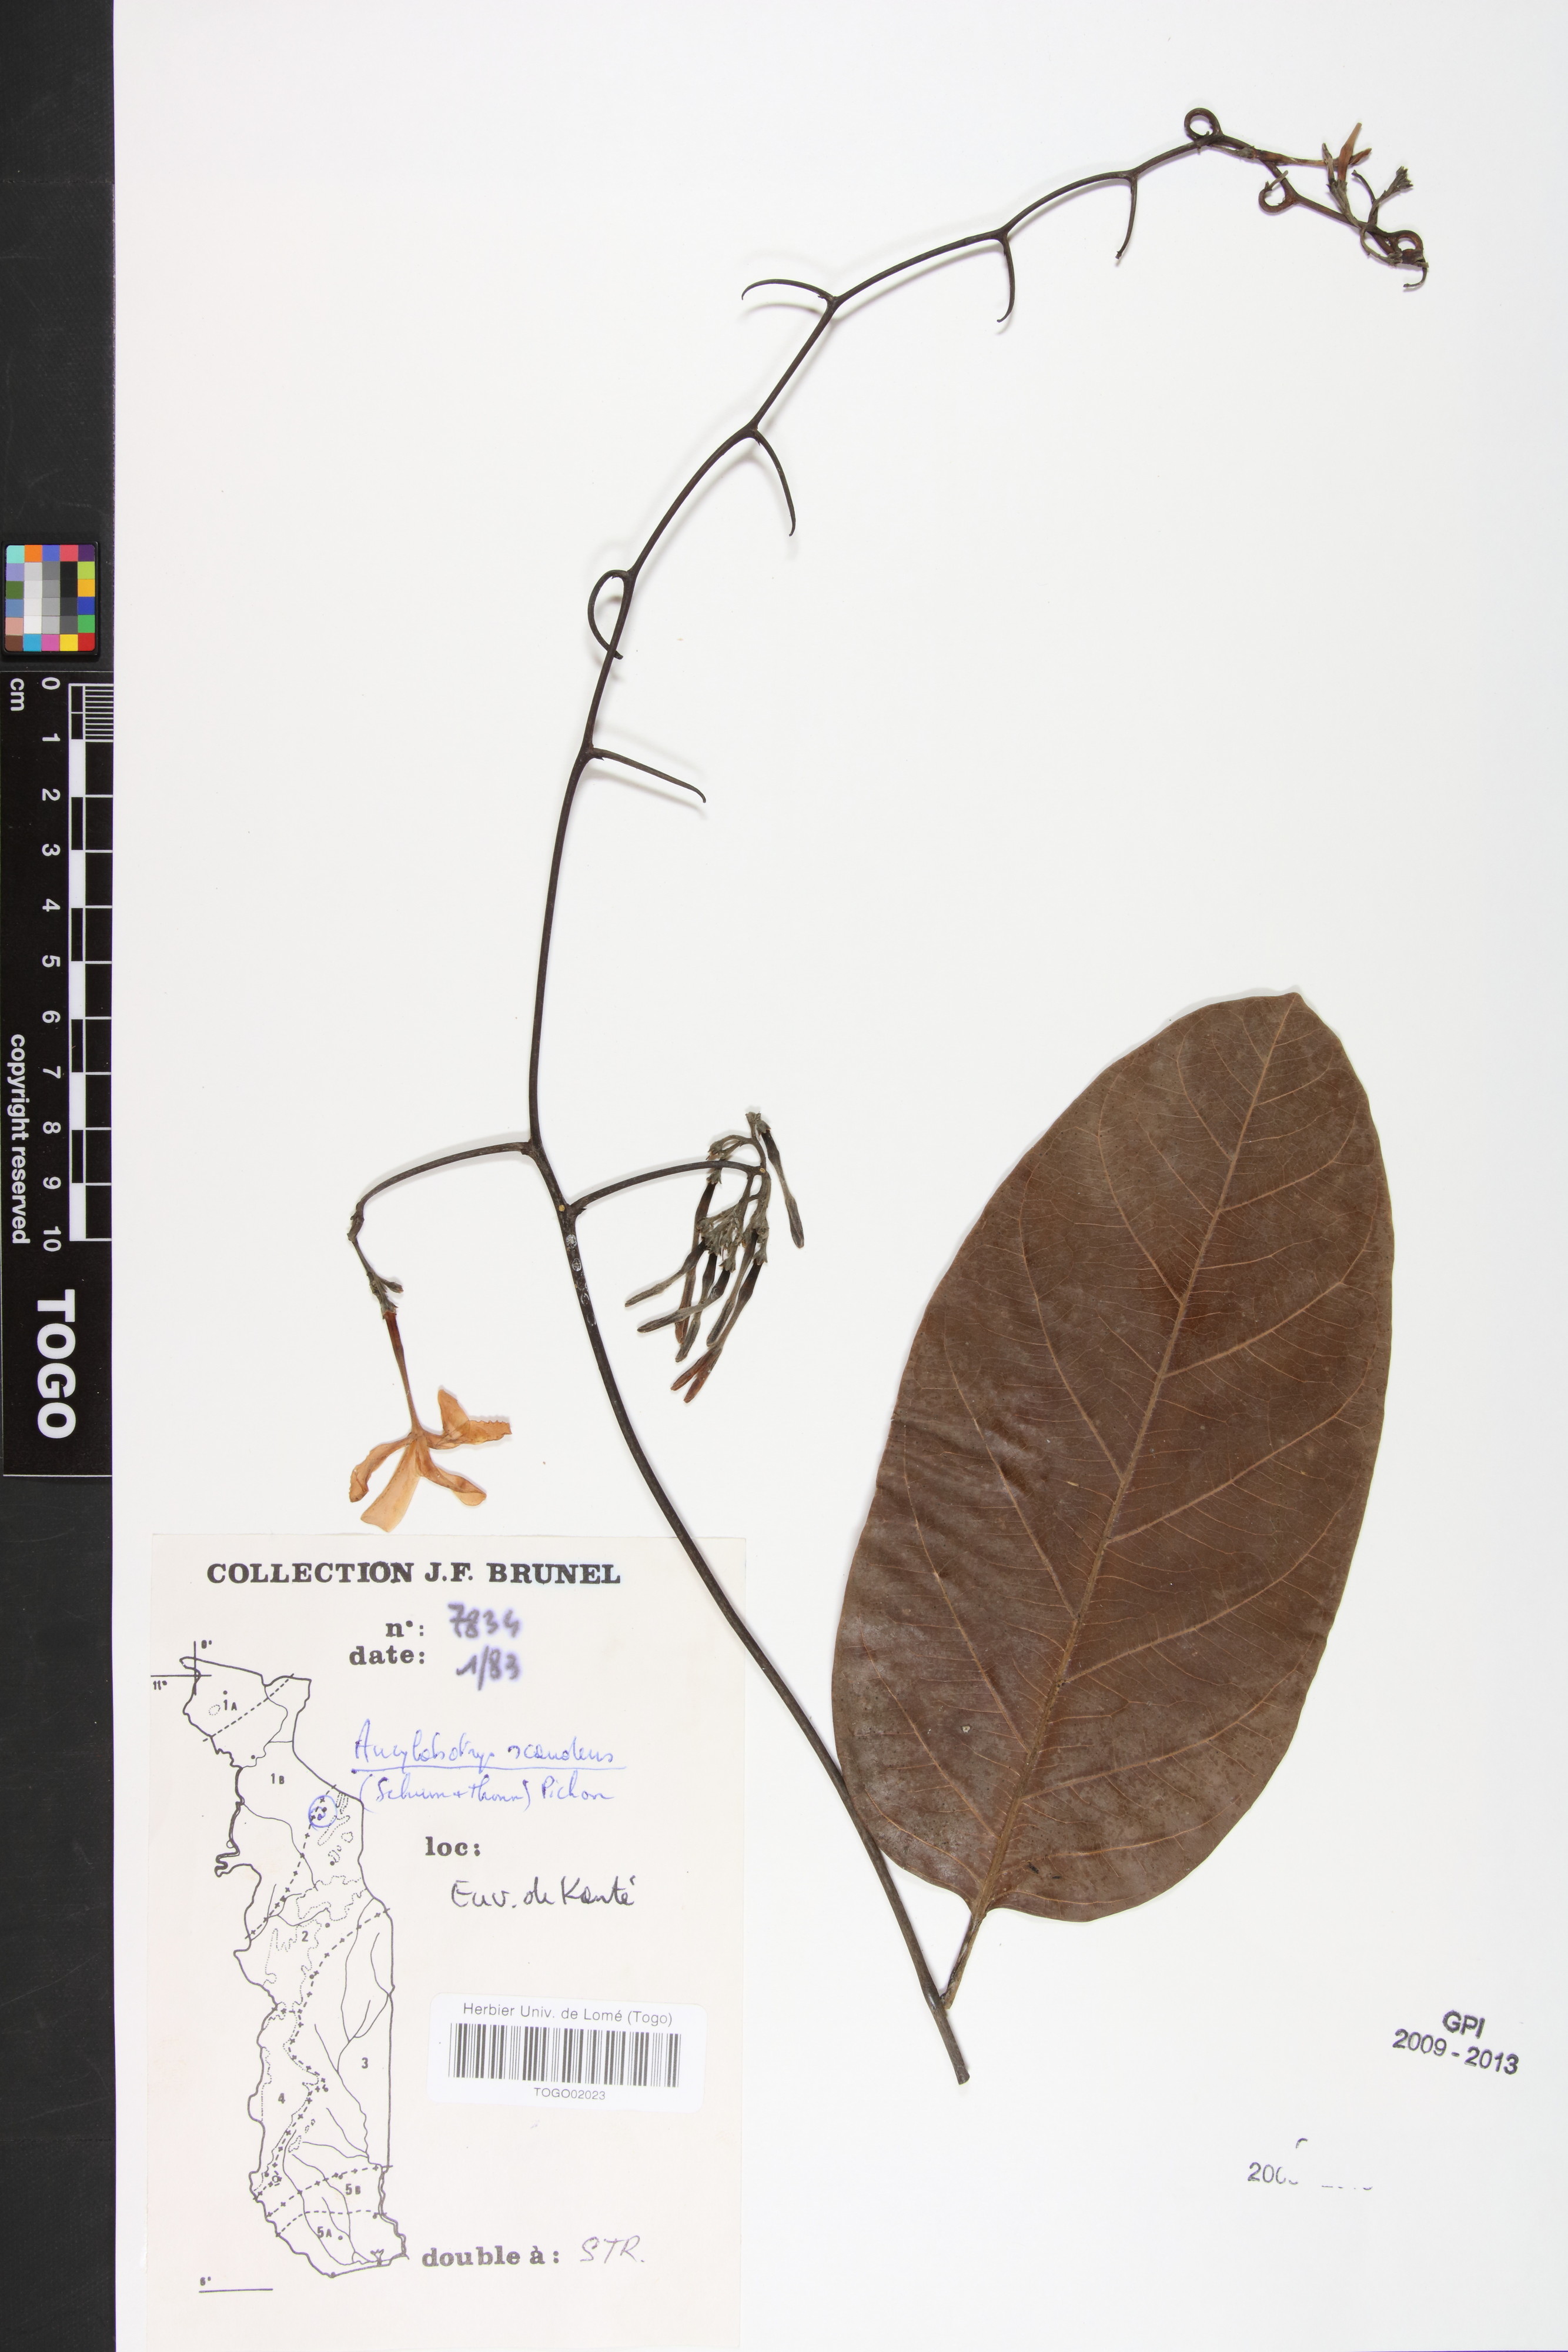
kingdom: Plantae
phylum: Tracheophyta
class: Magnoliopsida
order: Gentianales
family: Apocynaceae
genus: Ancylobothrys
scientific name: Ancylobothrys scandens
